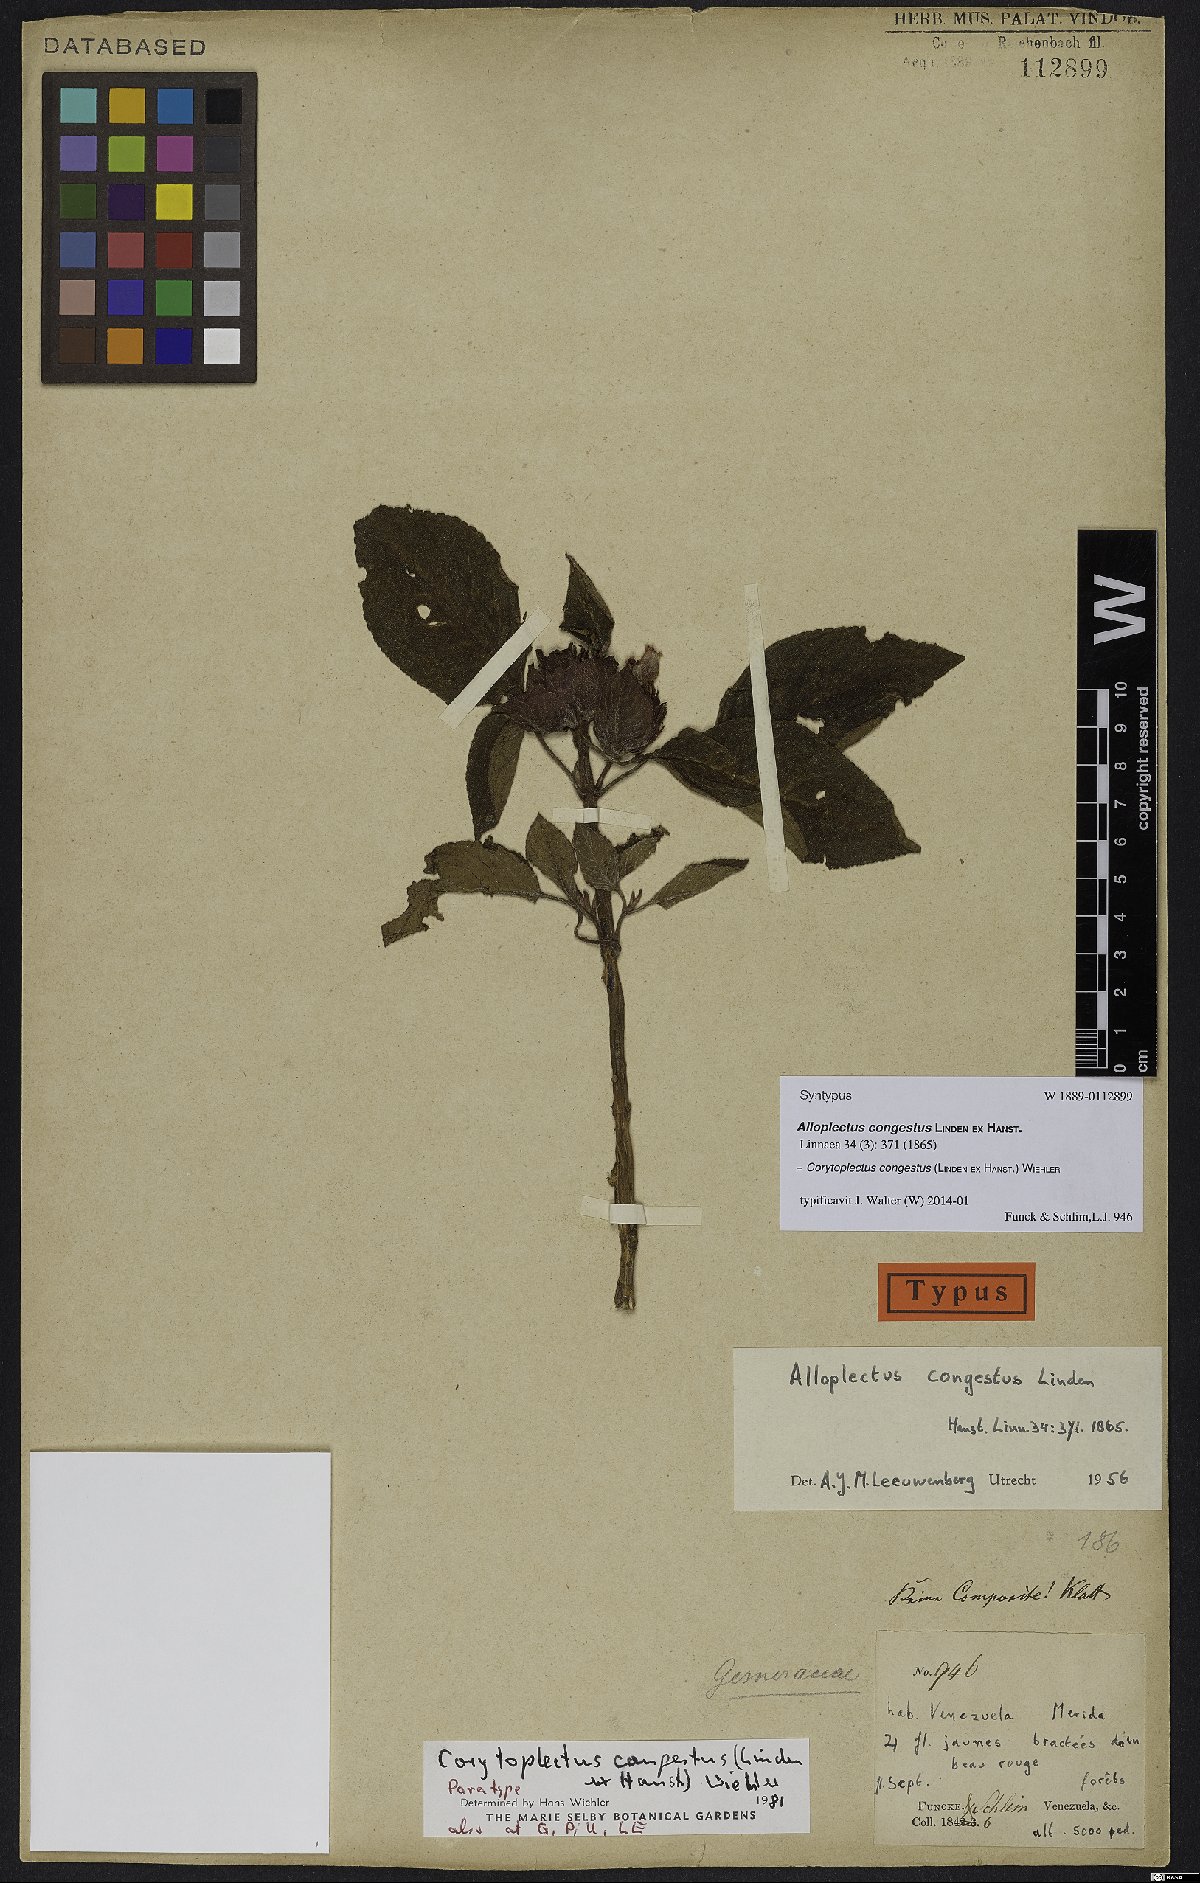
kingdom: Plantae
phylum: Tracheophyta
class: Magnoliopsida
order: Lamiales
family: Gesneriaceae
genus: Corytoplectus
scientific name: Corytoplectus congestus
